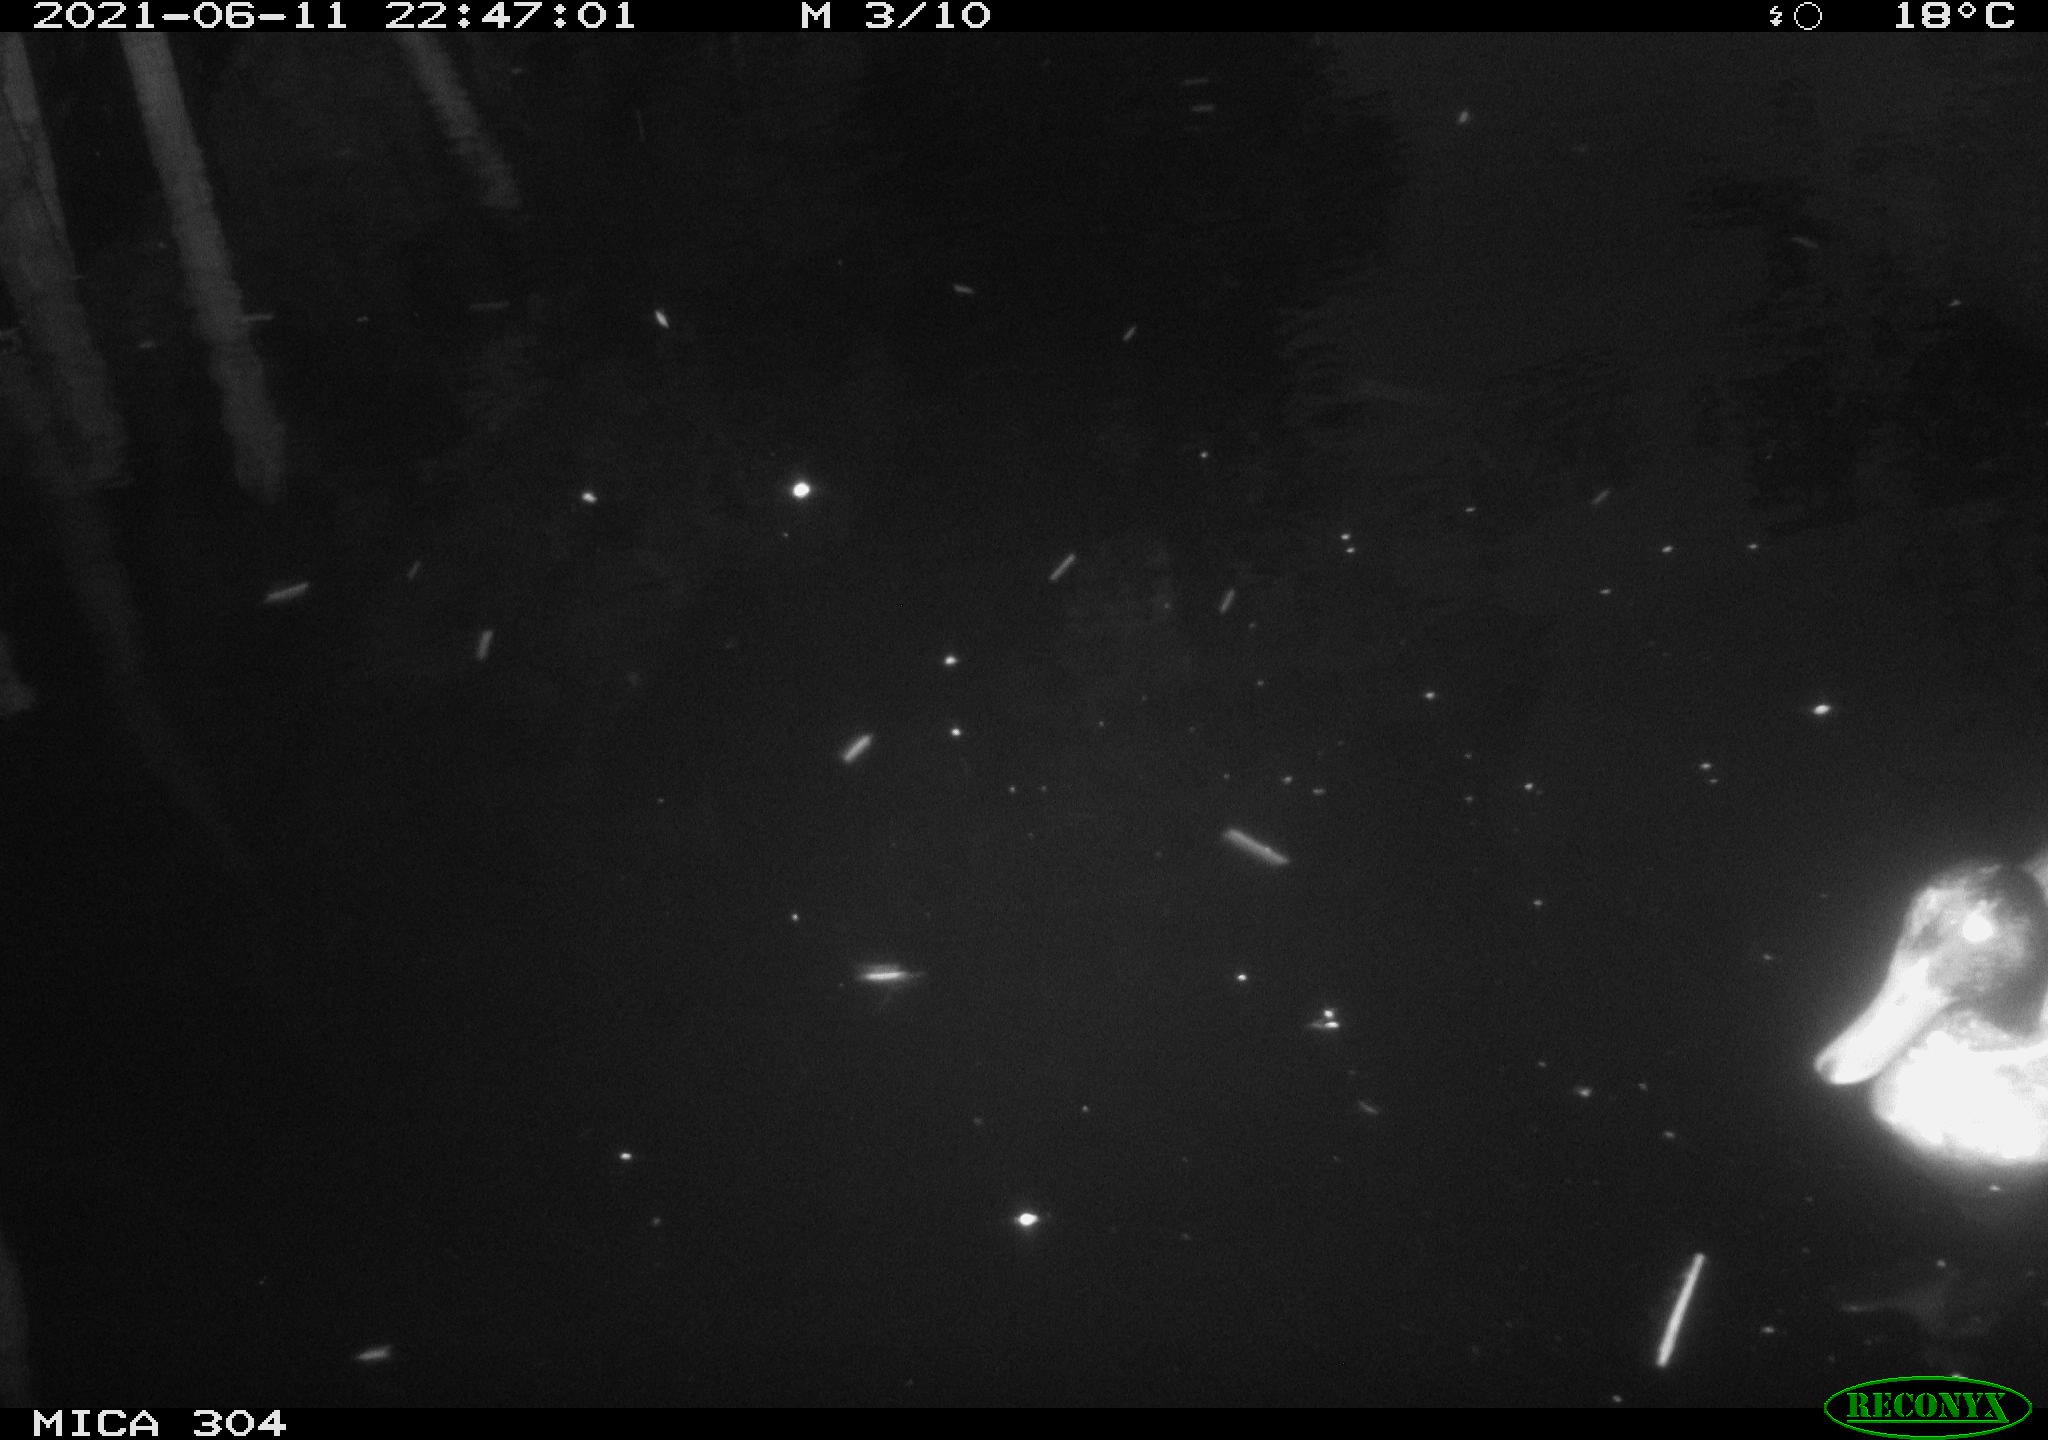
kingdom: Animalia
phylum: Chordata
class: Aves
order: Anseriformes
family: Anatidae
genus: Anas
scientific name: Anas platyrhynchos
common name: Mallard
